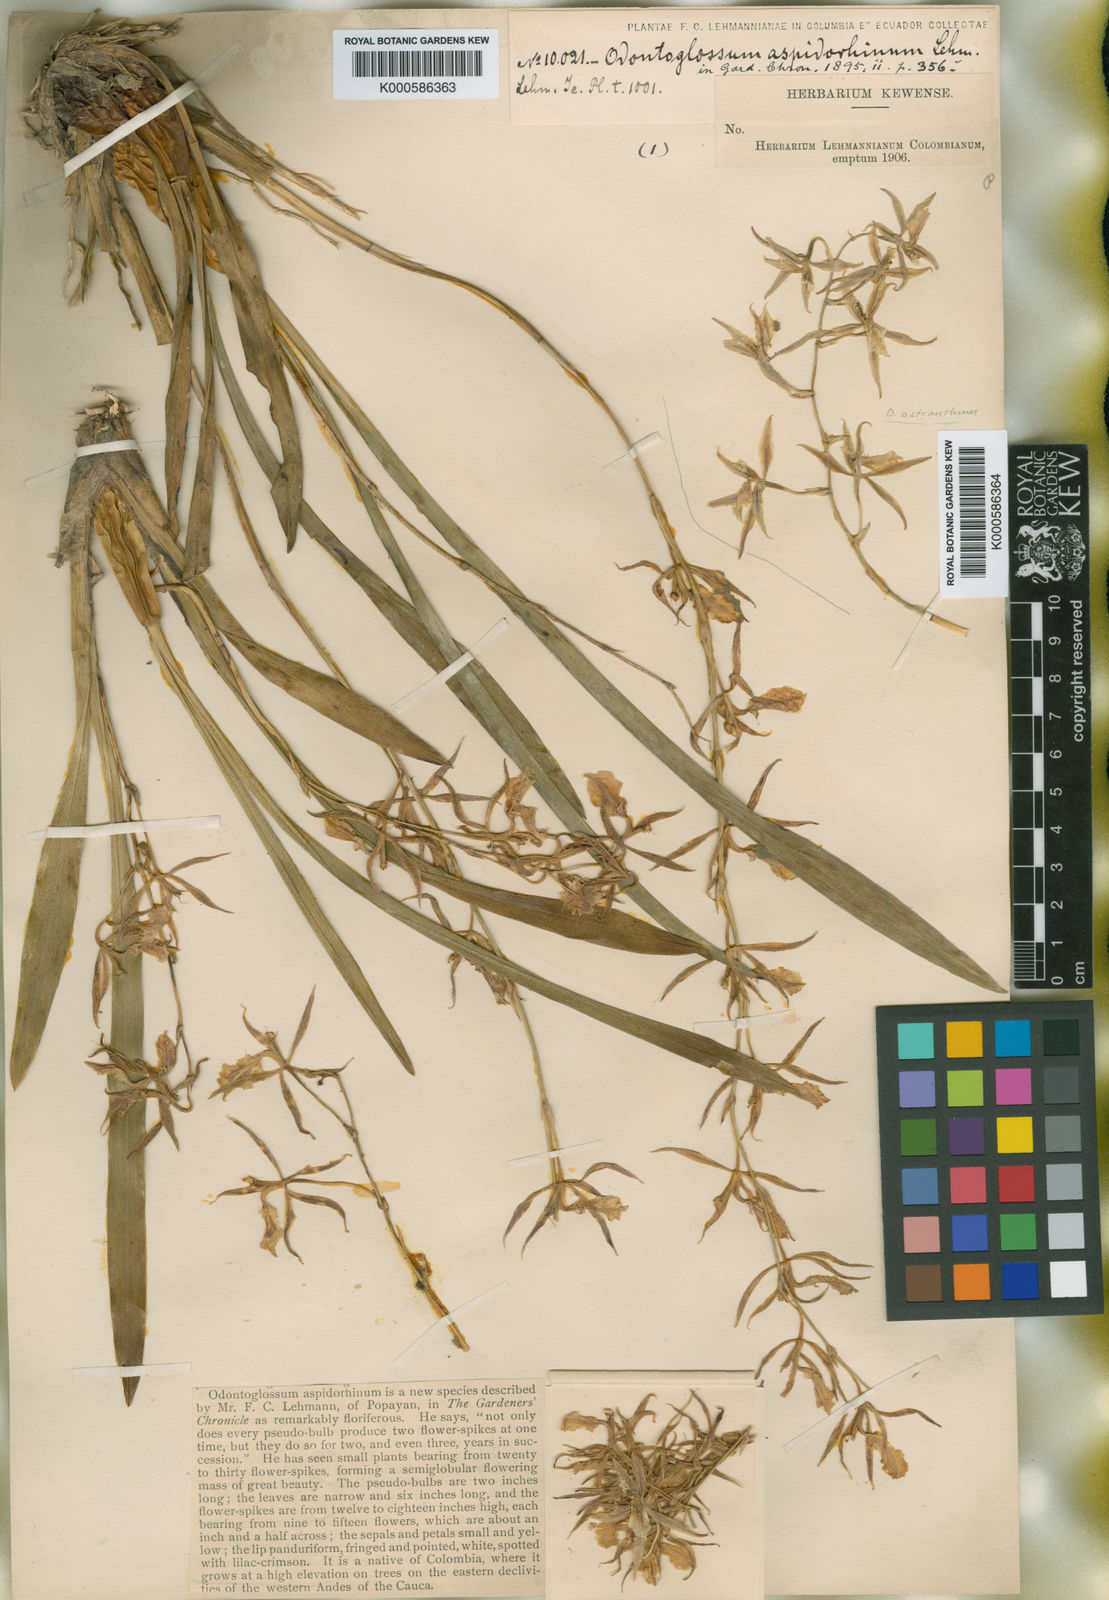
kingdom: Plantae
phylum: Tracheophyta
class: Liliopsida
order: Asparagales
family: Orchidaceae
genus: Oncidium
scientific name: Oncidium aspidorhinum
